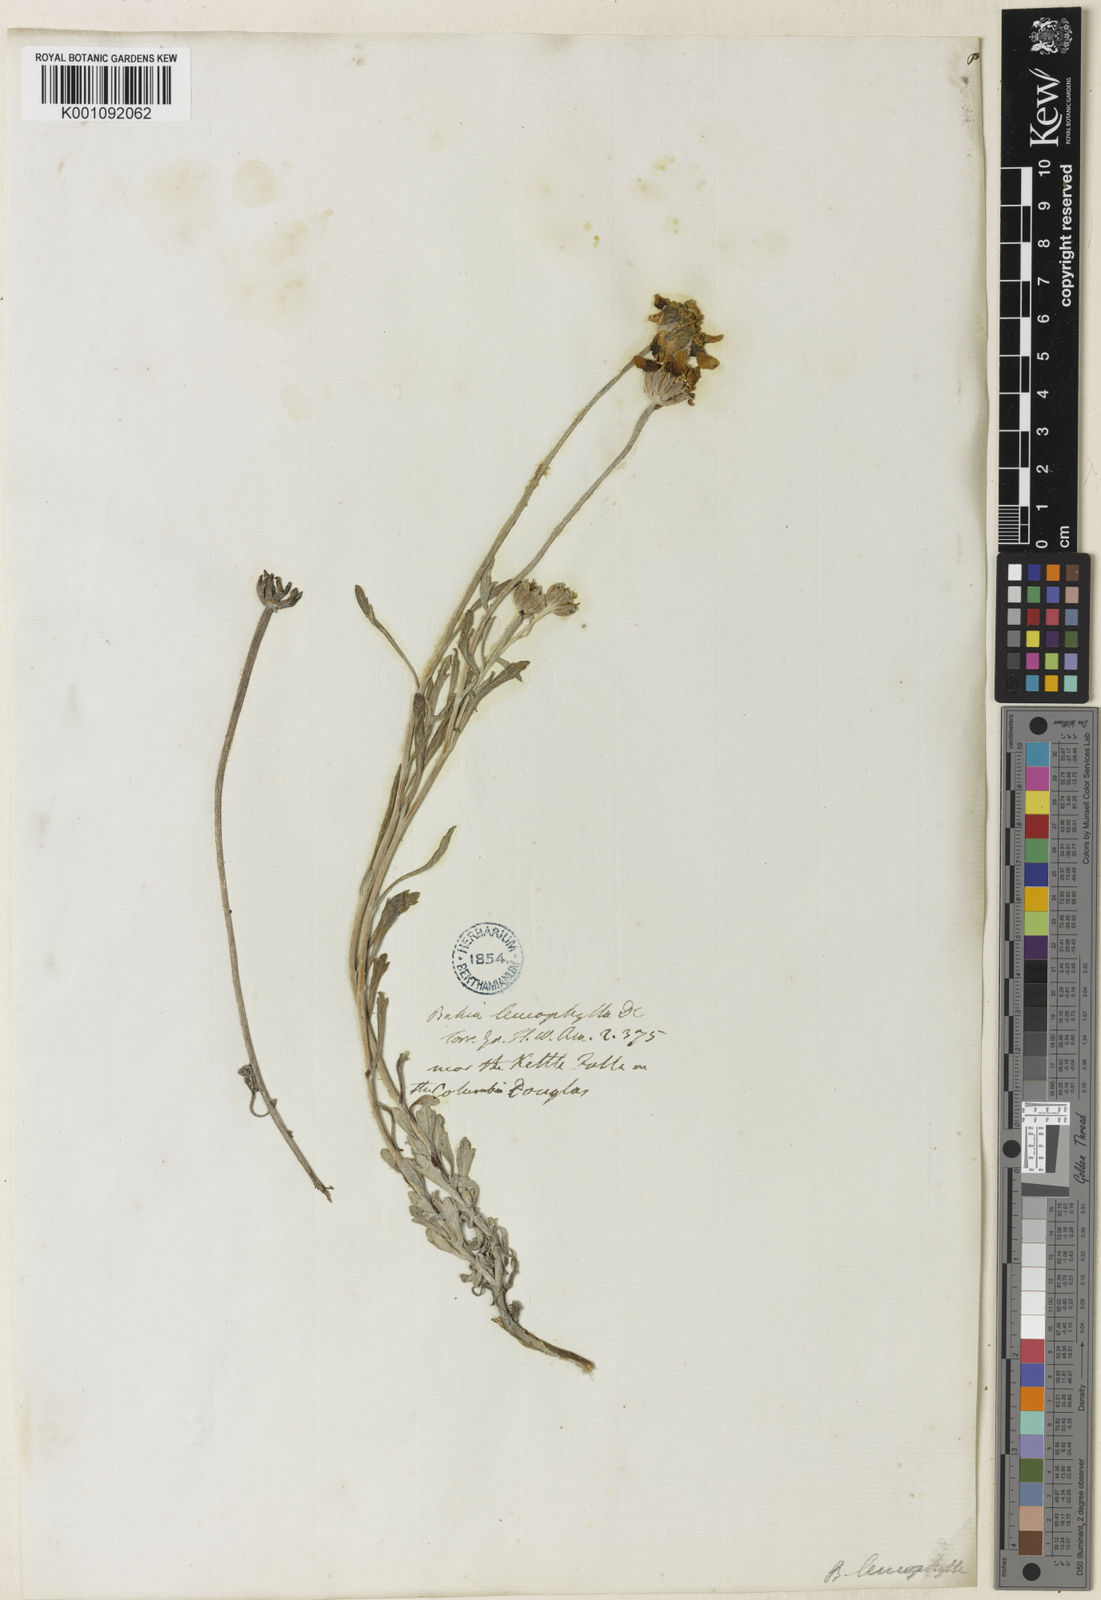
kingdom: Plantae
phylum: Tracheophyta
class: Magnoliopsida
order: Asterales
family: Asteraceae
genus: Eriophyllum
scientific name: Eriophyllum lanatum
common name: Common woolly-sunflower
